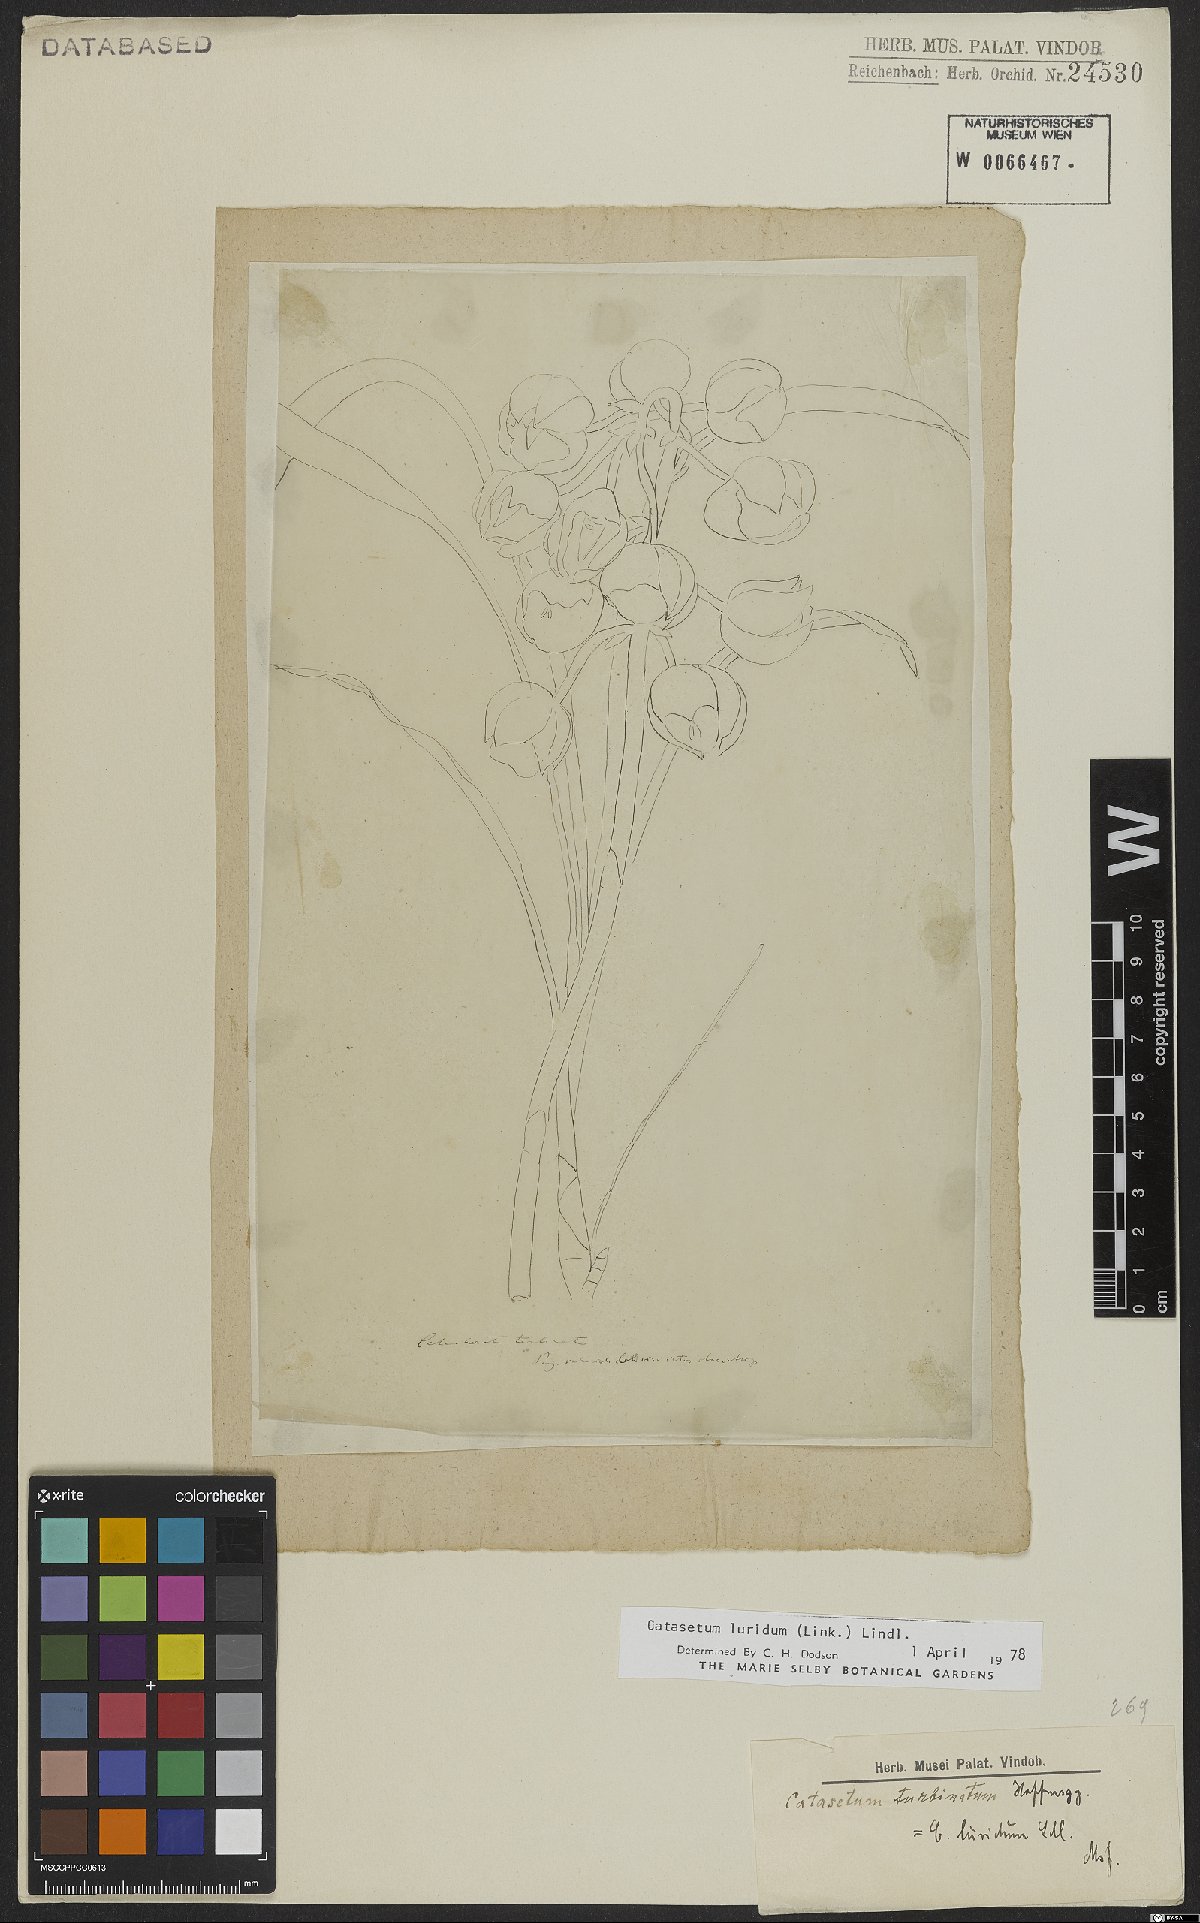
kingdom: Plantae
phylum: Tracheophyta
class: Liliopsida
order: Asparagales
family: Orchidaceae
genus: Catasetum
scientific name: Catasetum luridum
